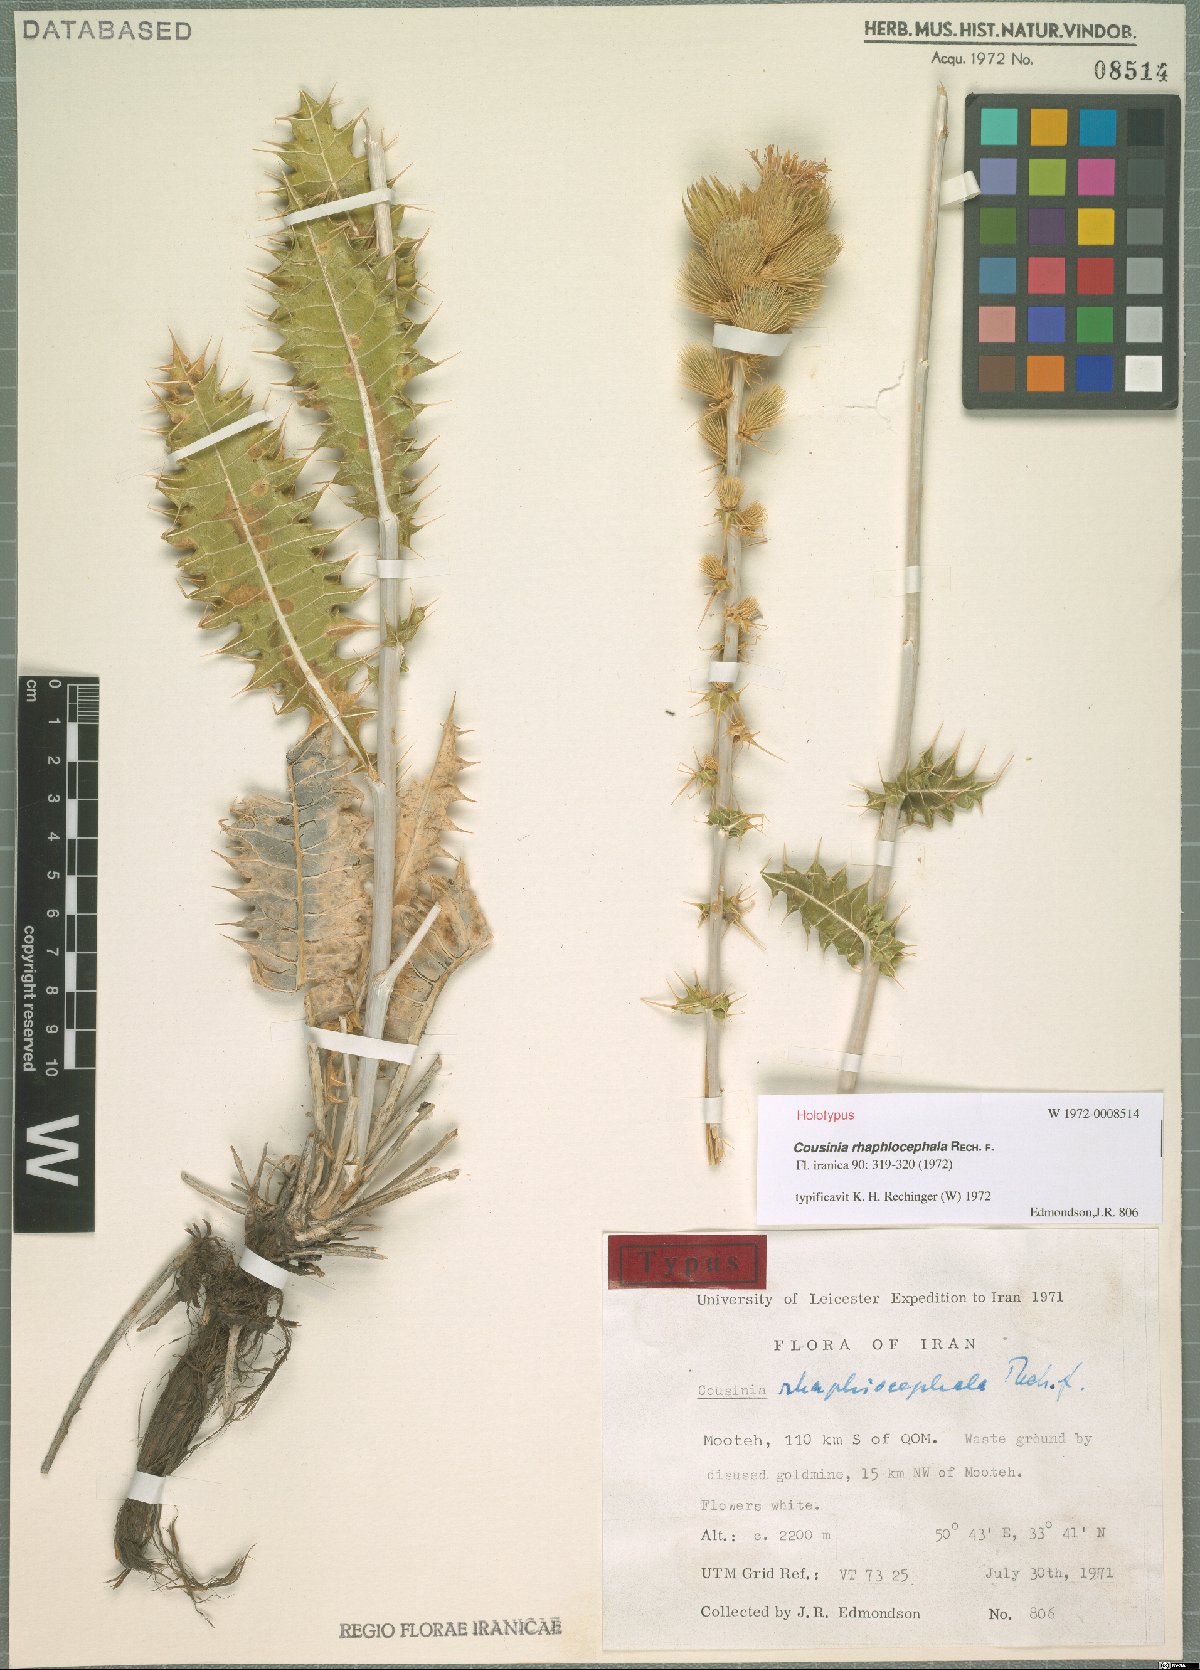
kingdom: Plantae
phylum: Tracheophyta
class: Magnoliopsida
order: Asterales
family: Asteraceae
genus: Cousinia
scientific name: Cousinia rhaphiocephala
